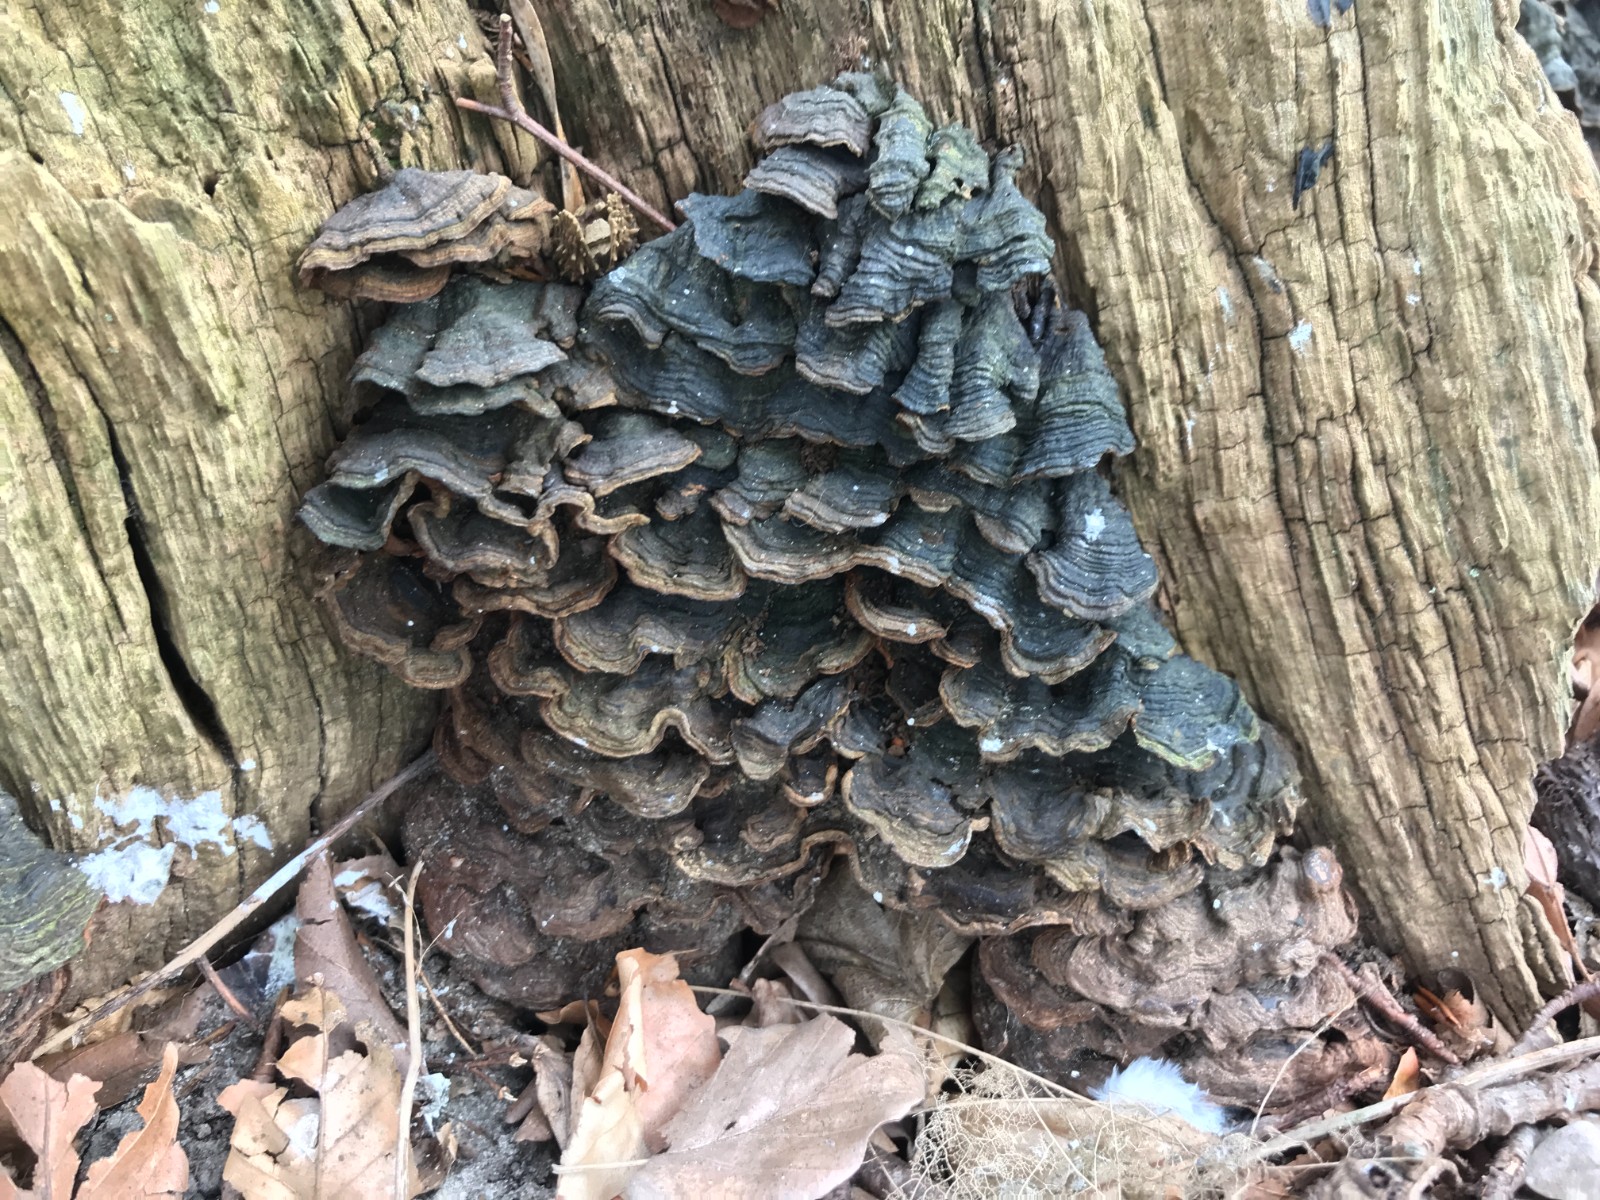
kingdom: Fungi
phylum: Basidiomycota
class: Agaricomycetes
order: Hymenochaetales
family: Hymenochaetaceae
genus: Hymenochaete
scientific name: Hymenochaete rubiginosa
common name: stiv ruslædersvamp
